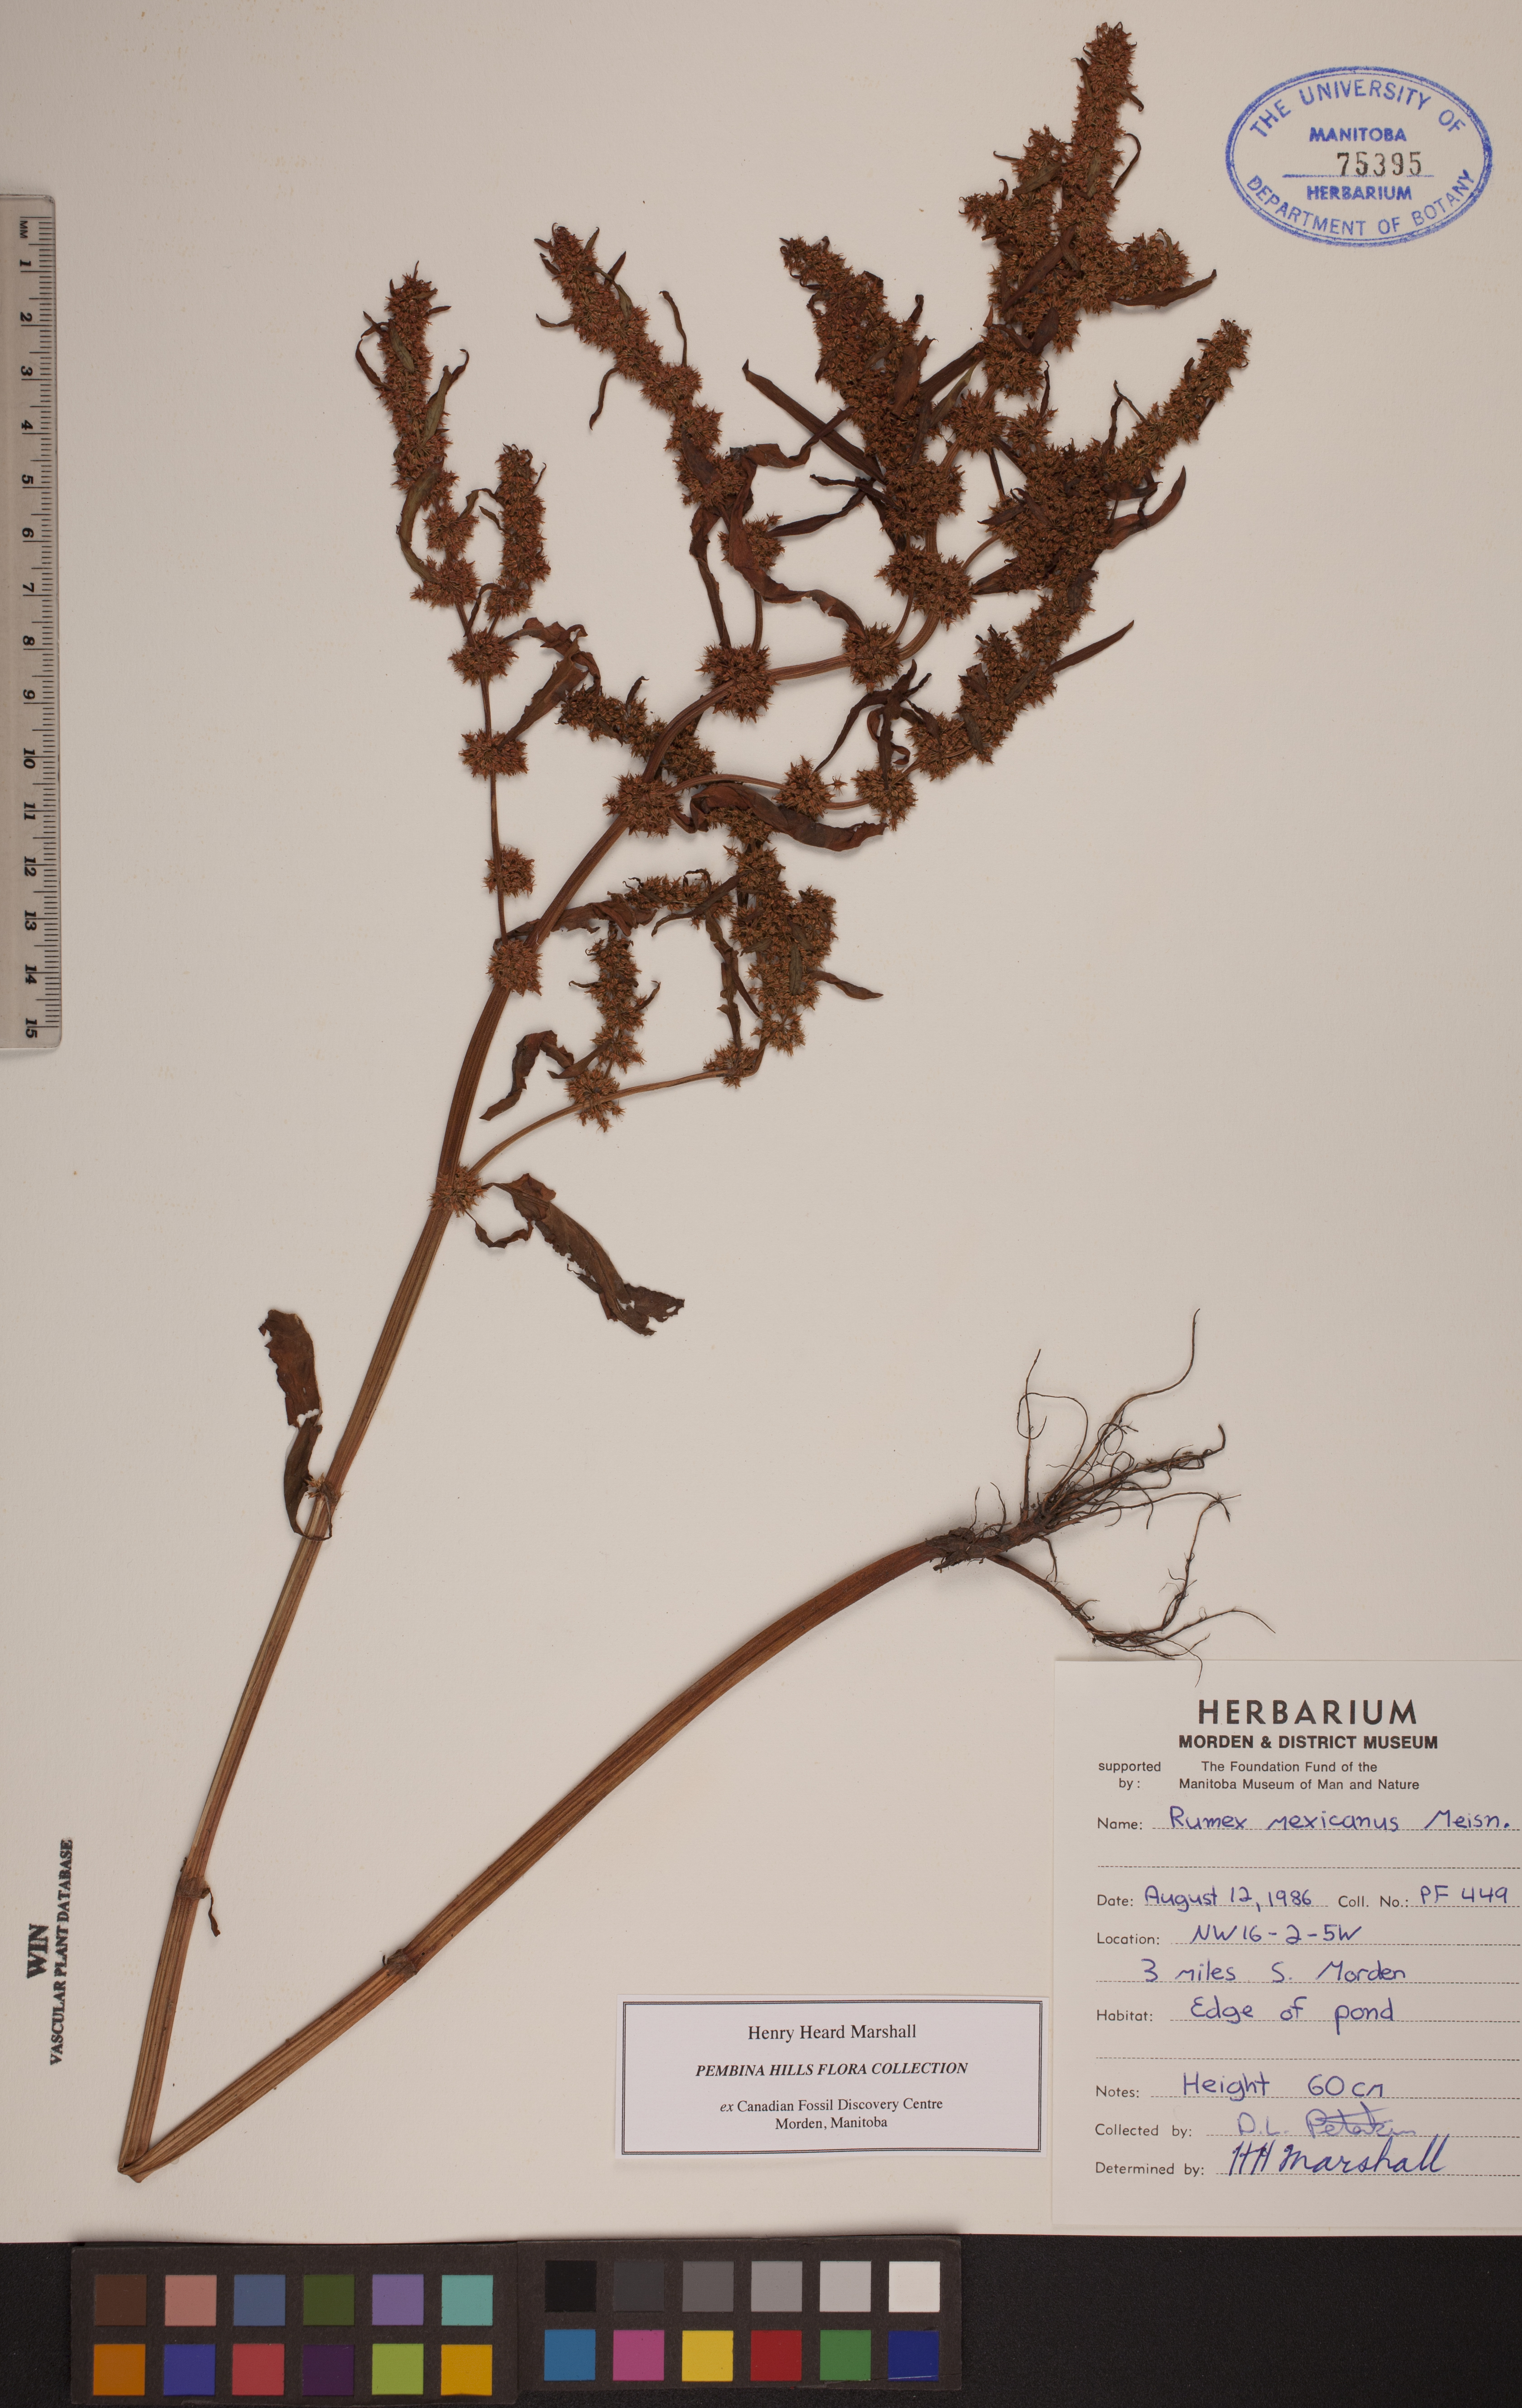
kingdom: Plantae
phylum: Tracheophyta
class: Magnoliopsida
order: Caryophyllales
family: Polygonaceae
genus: Rumex
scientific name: Rumex triangulivalvis
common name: Triangular-valve dock
